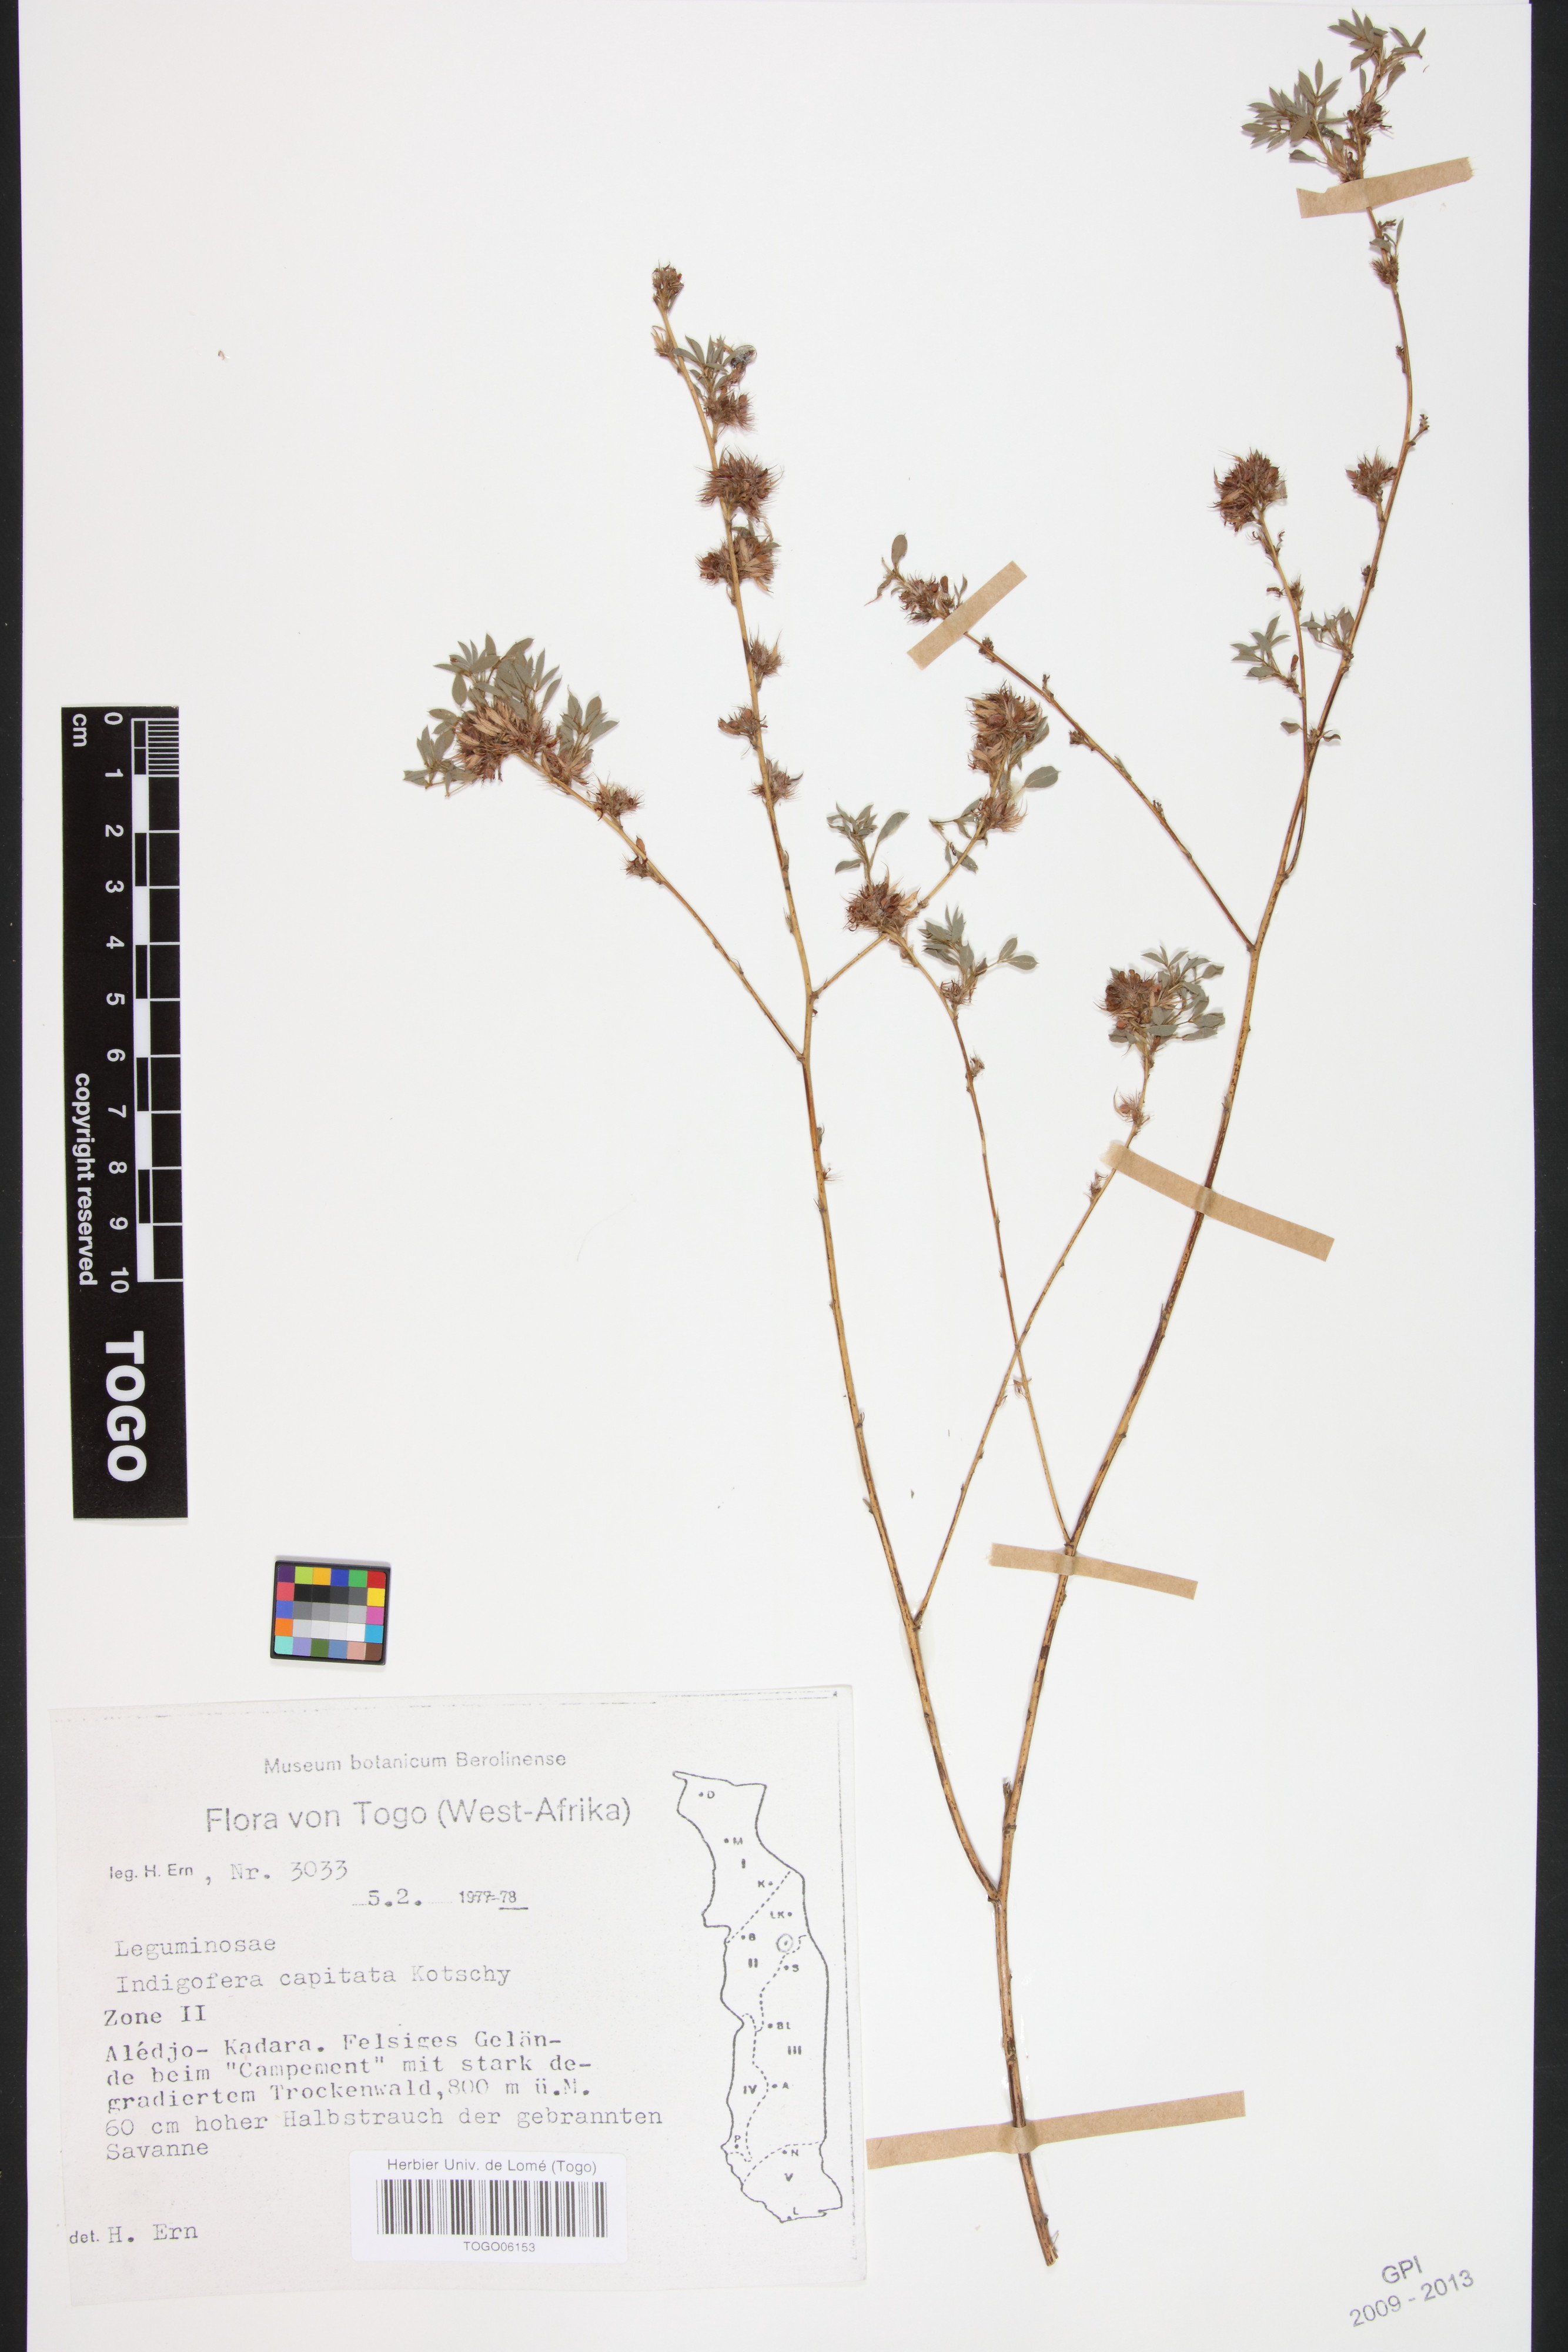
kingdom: Plantae
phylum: Tracheophyta
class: Magnoliopsida
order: Fabales
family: Fabaceae
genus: Indigofera
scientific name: Indigofera capitata
